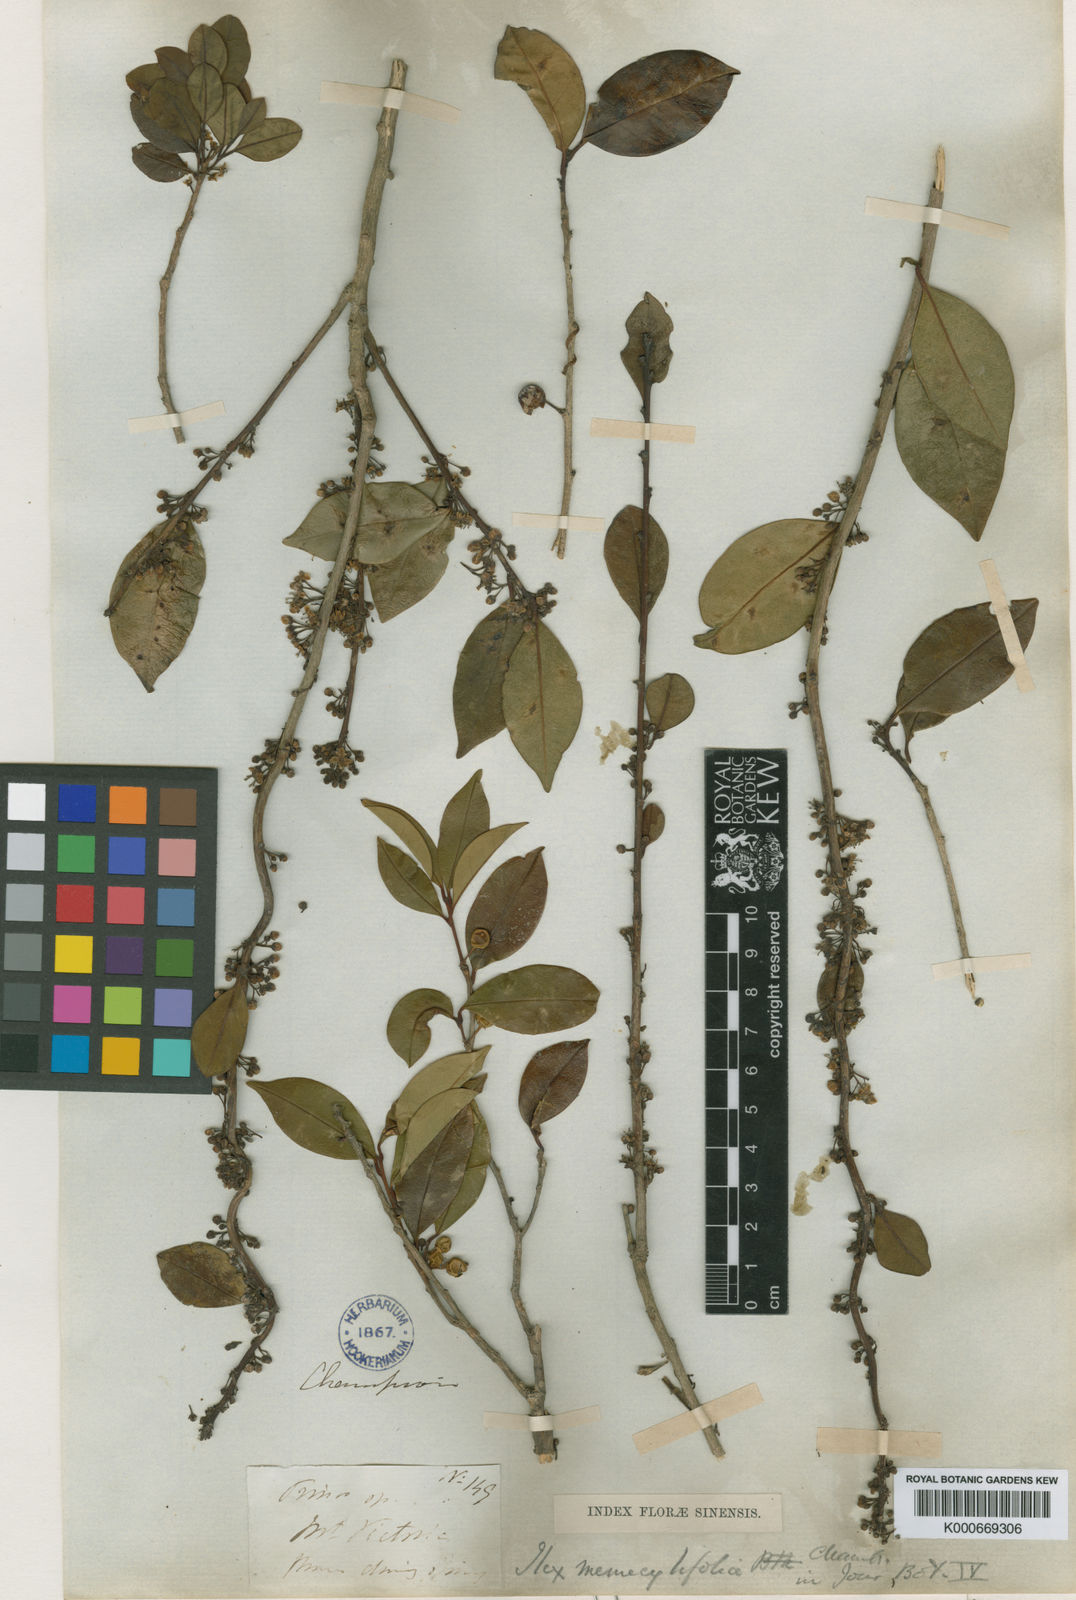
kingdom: Plantae
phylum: Tracheophyta
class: Magnoliopsida
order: Aquifoliales
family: Aquifoliaceae
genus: Ilex
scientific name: Ilex memecylifolia
